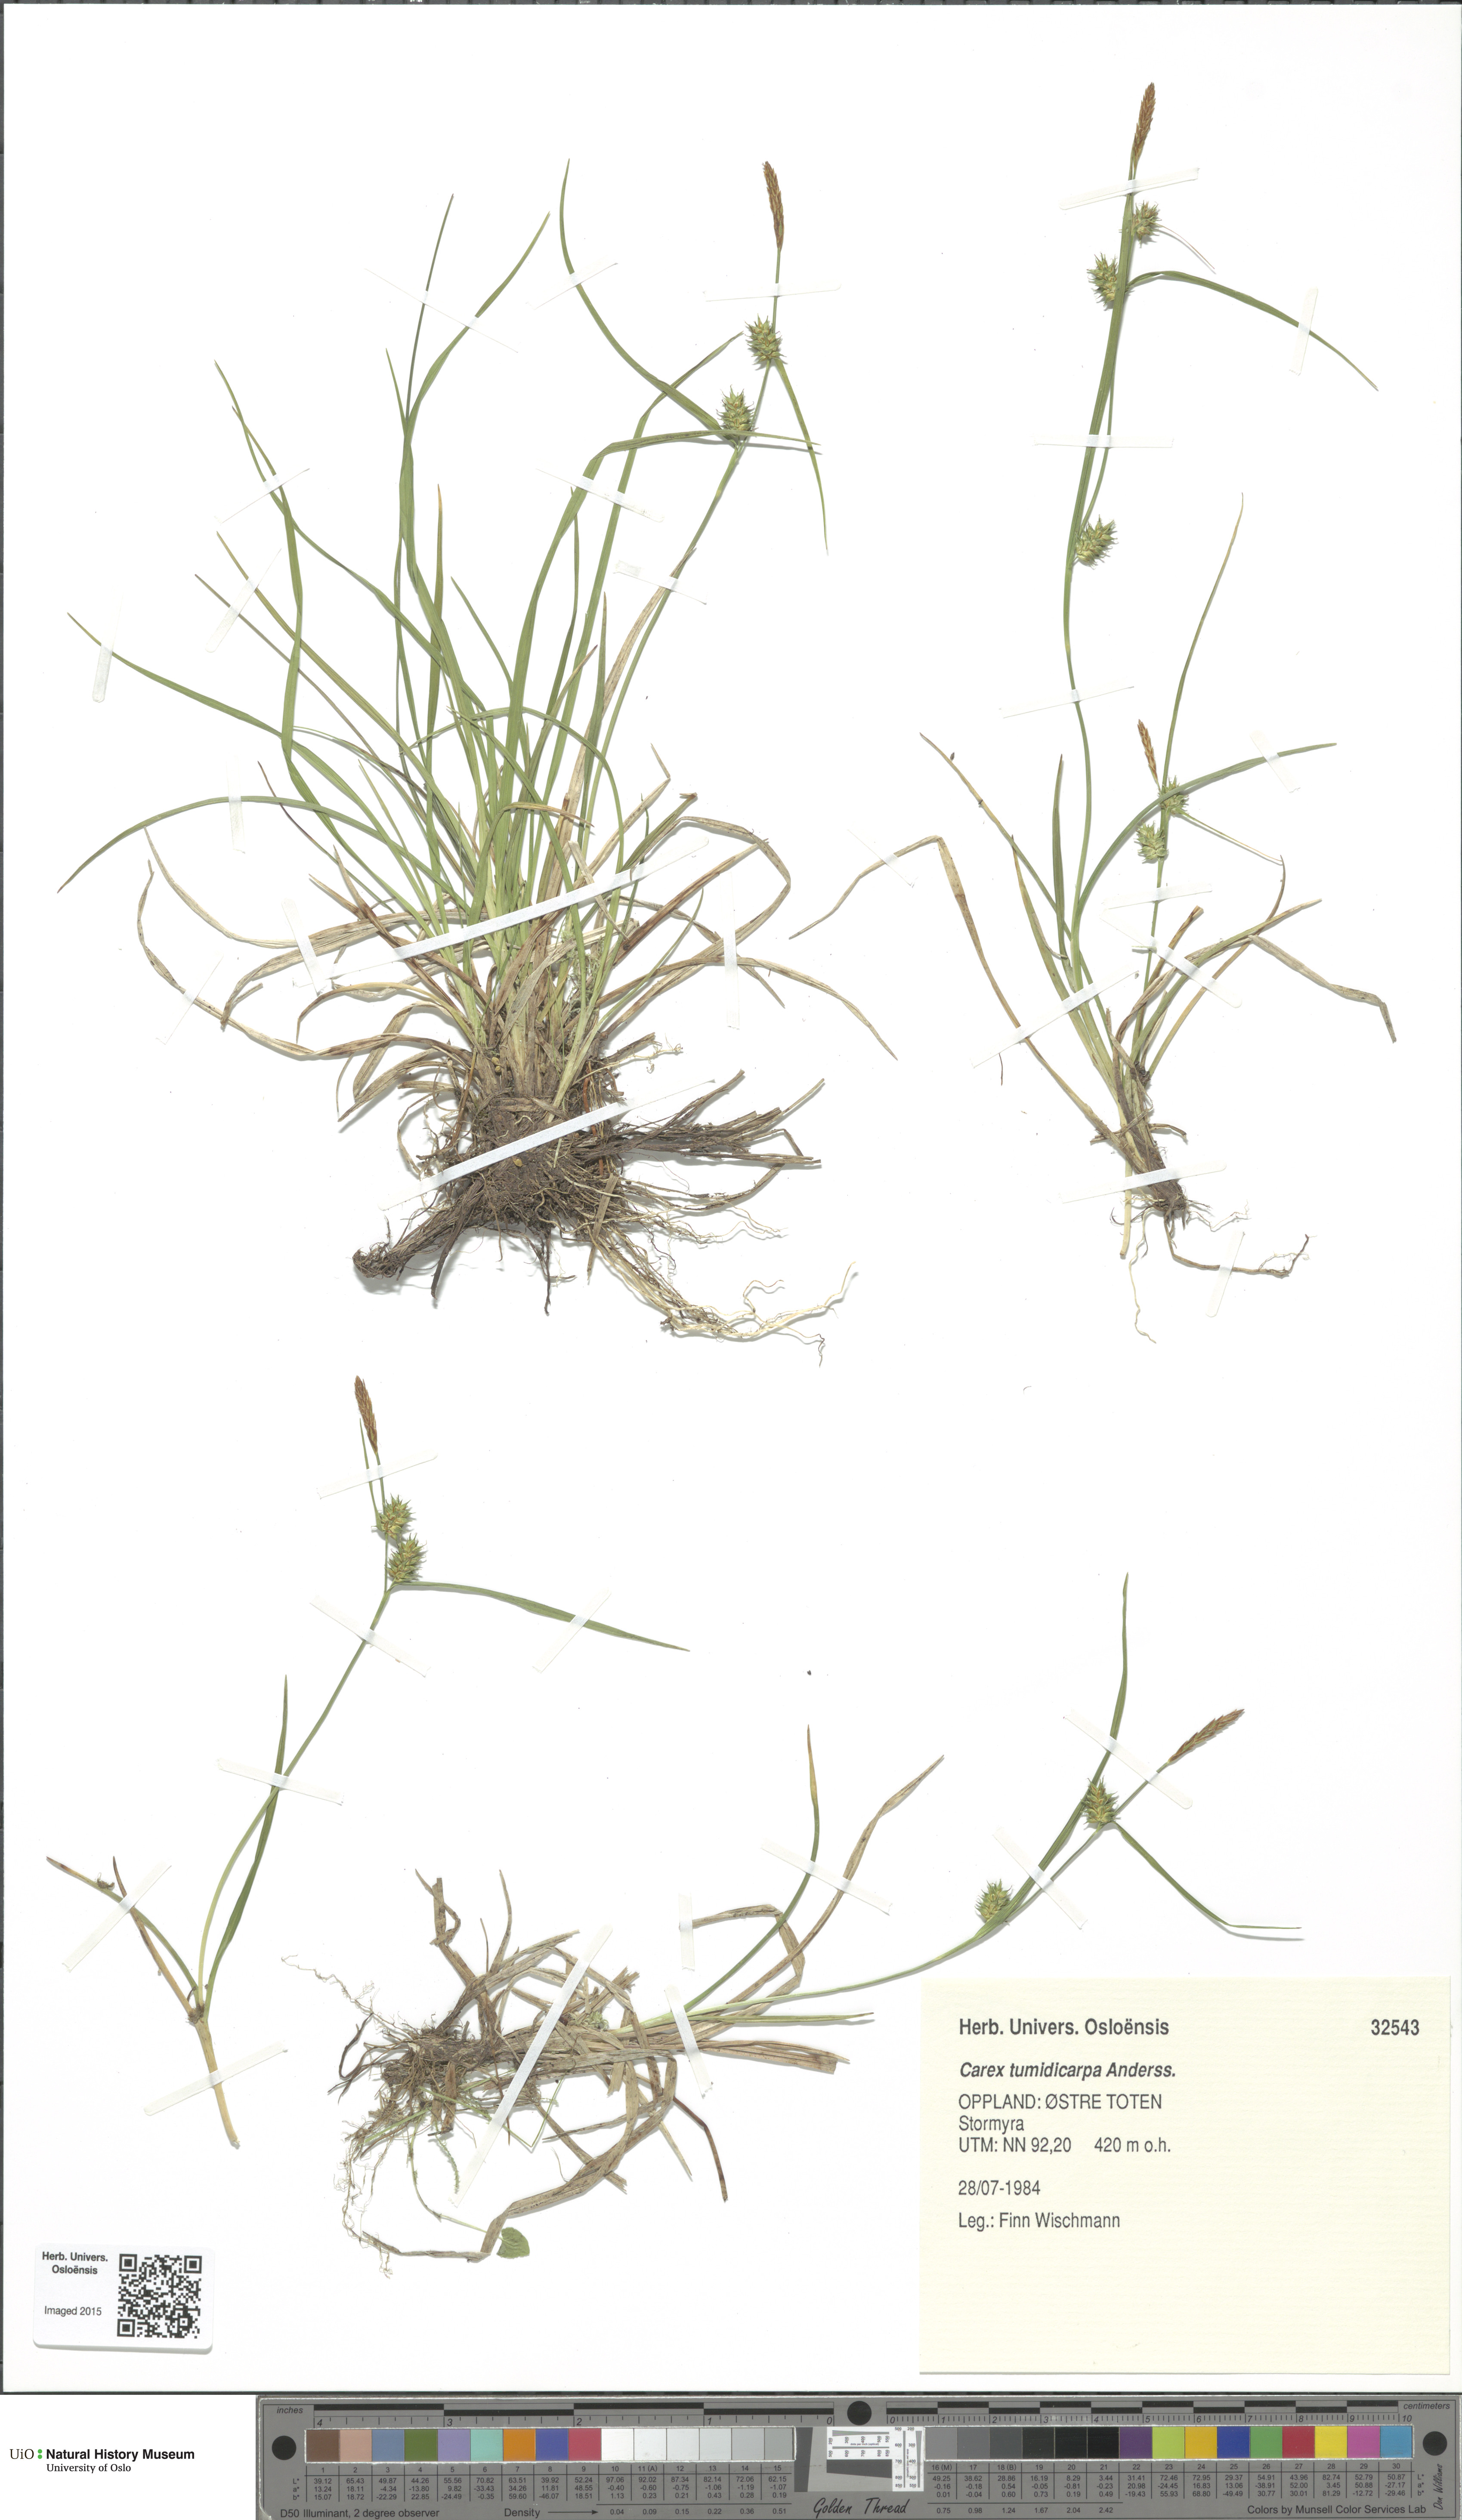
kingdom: Plantae
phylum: Tracheophyta
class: Liliopsida
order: Poales
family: Cyperaceae
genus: Carex
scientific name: Carex demissa
